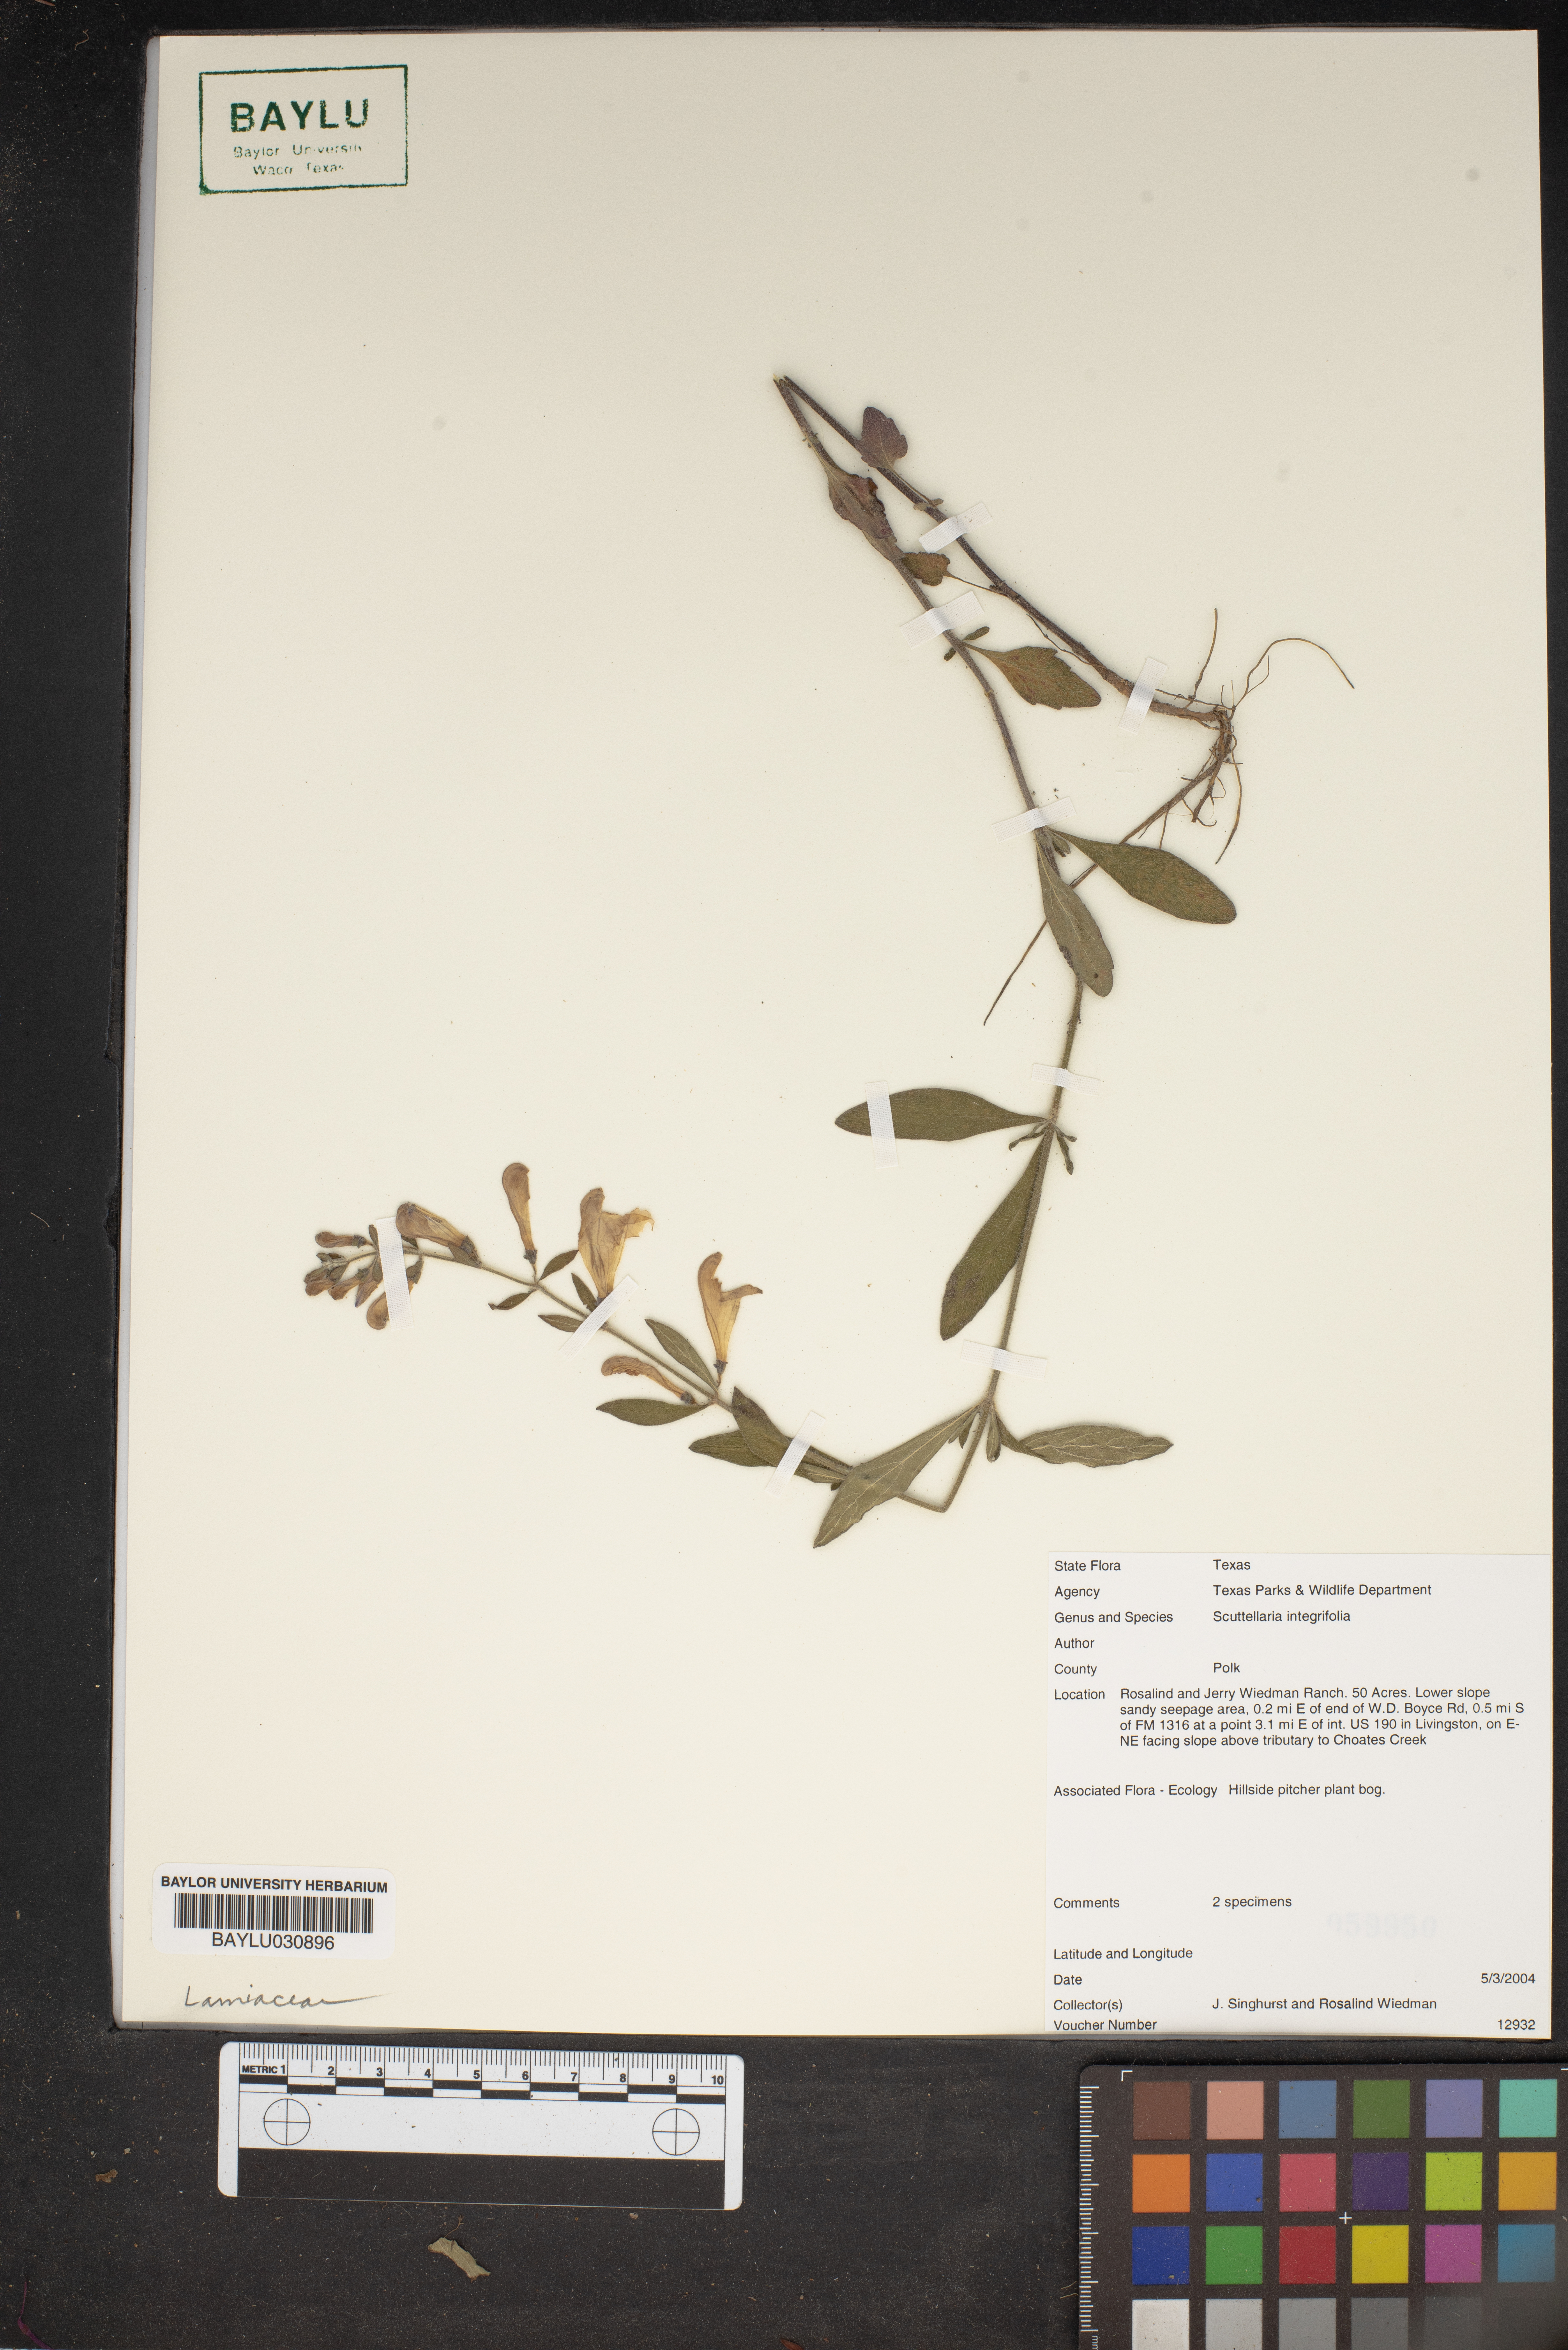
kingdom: Plantae
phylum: Tracheophyta
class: Magnoliopsida
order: Lamiales
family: Lamiaceae
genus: Scutellaria
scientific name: Scutellaria integrifolia
